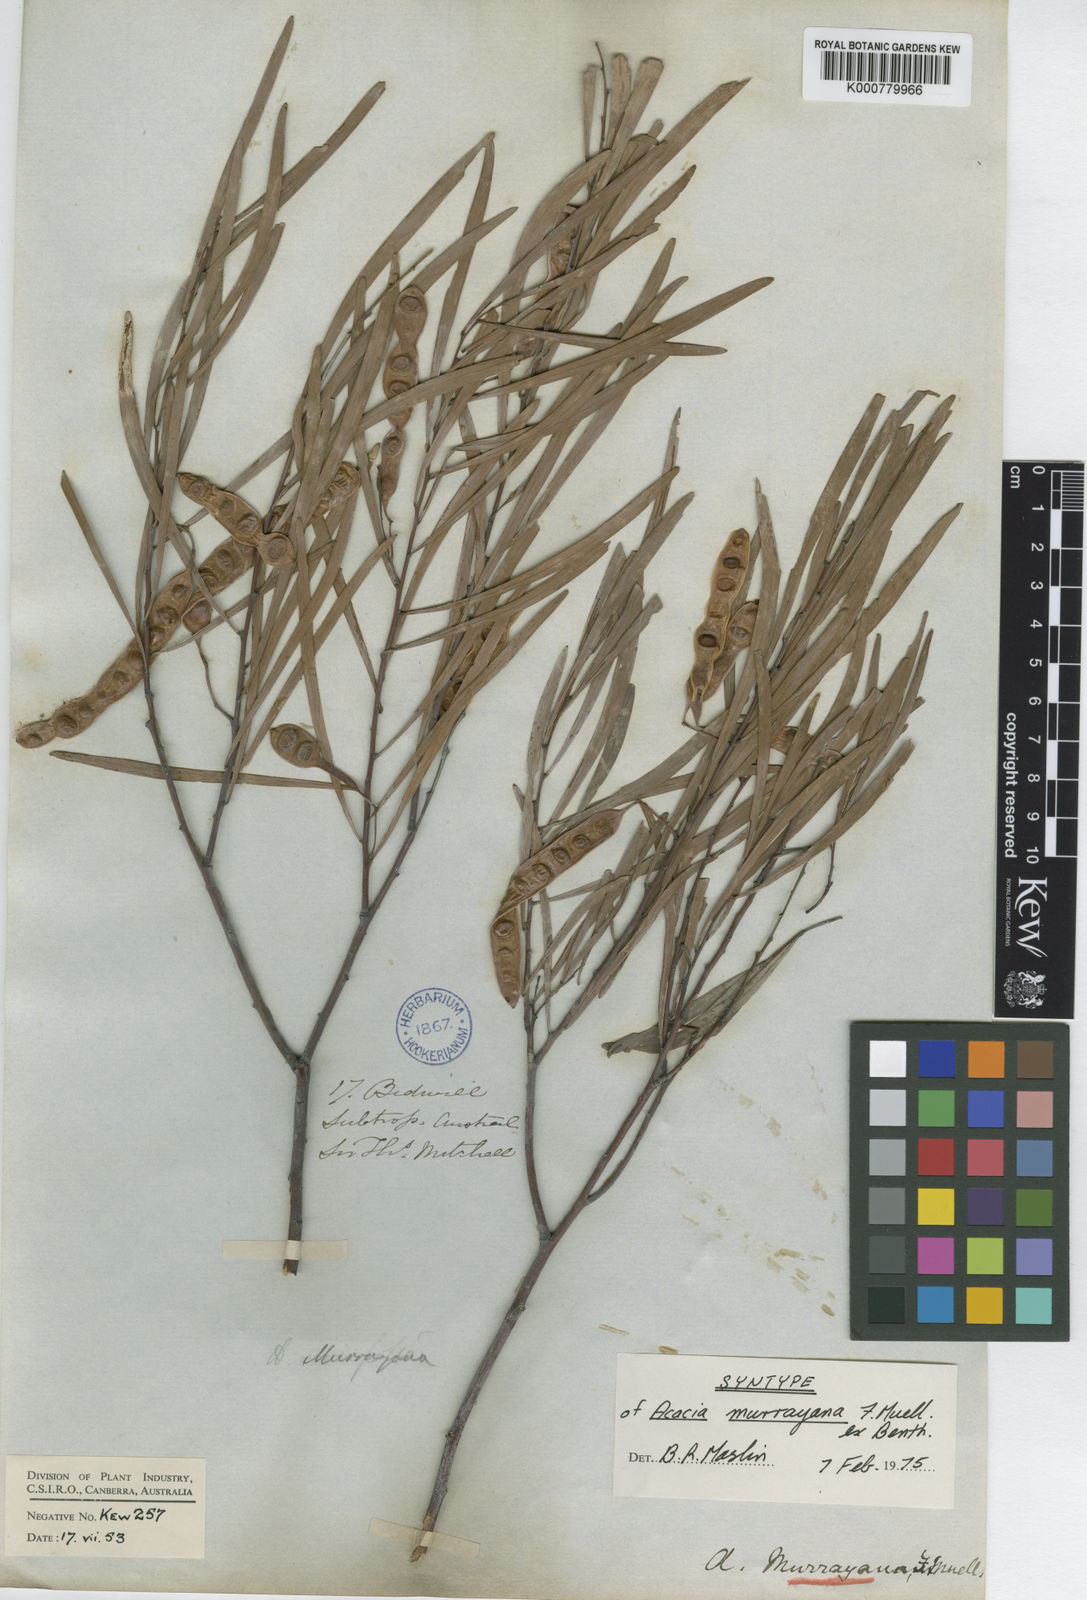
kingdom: Plantae
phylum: Tracheophyta
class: Magnoliopsida
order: Fabales
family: Fabaceae
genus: Acacia
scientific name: Acacia murrayana
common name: Murray's wattle
